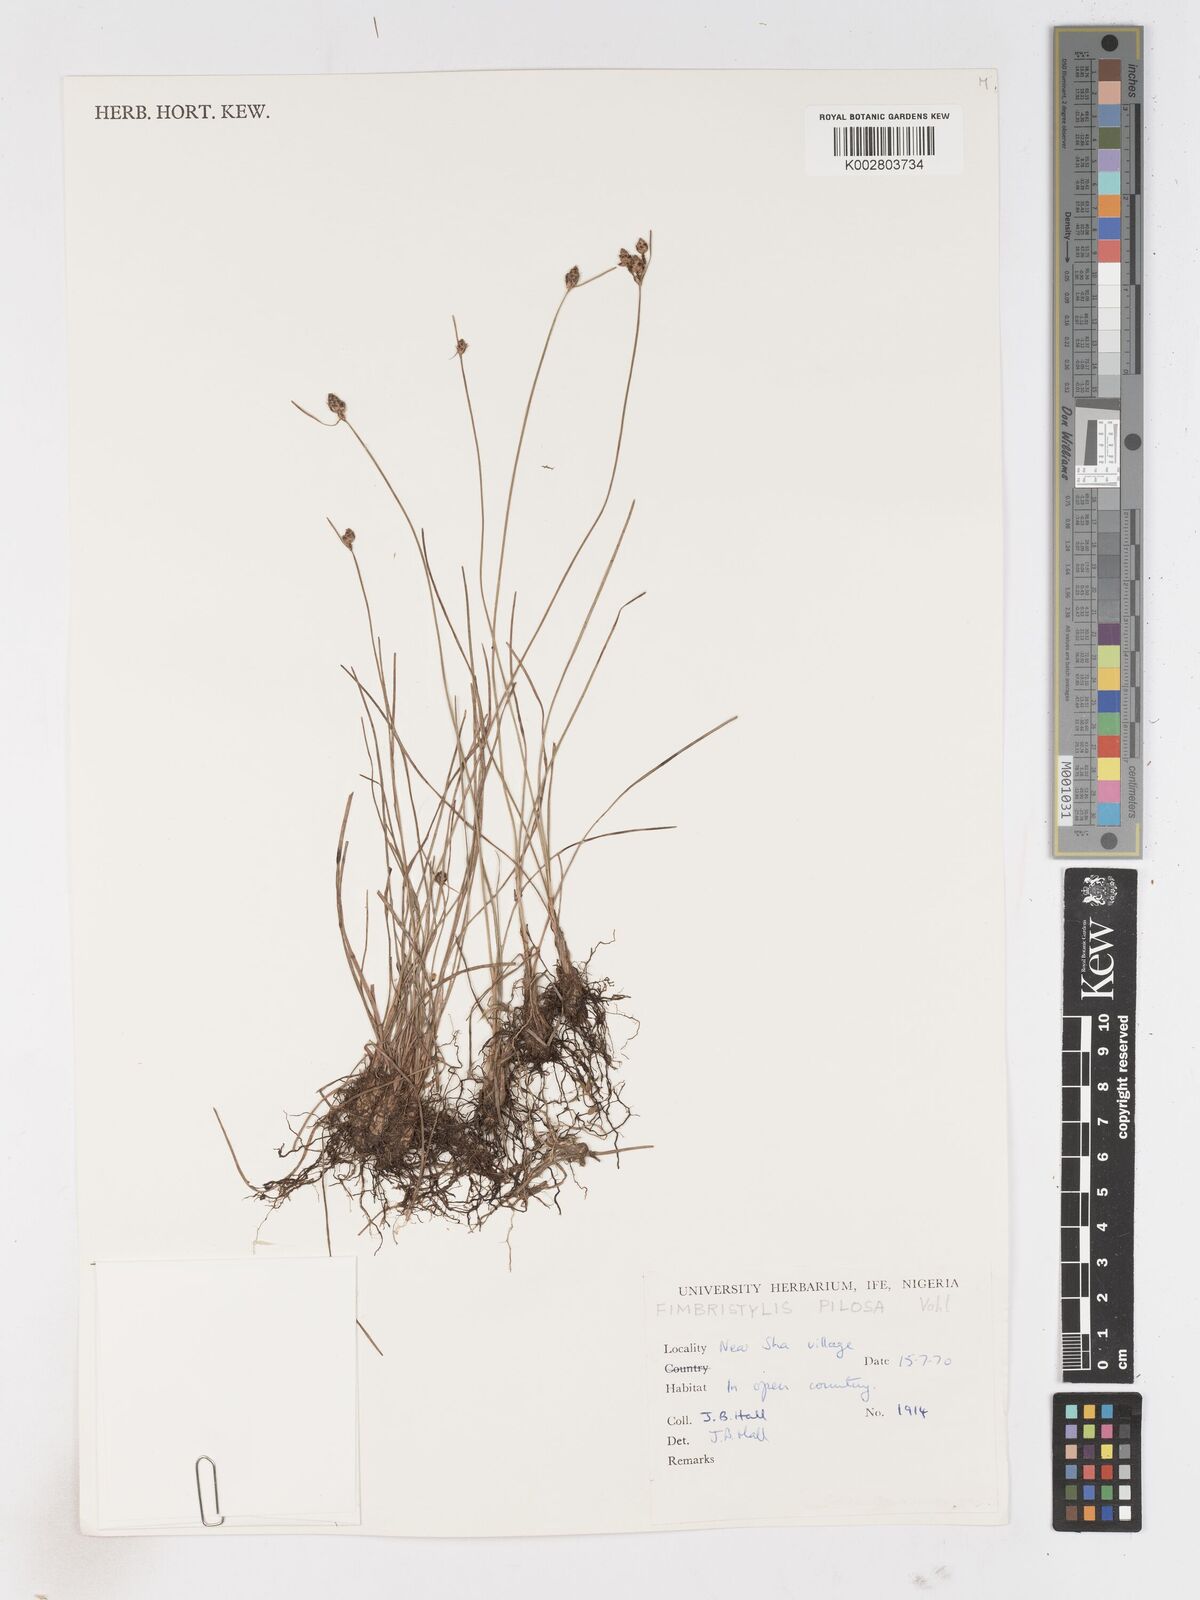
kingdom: Plantae
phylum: Tracheophyta
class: Liliopsida
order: Poales
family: Cyperaceae
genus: Fimbristylis
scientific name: Fimbristylis pilosa
